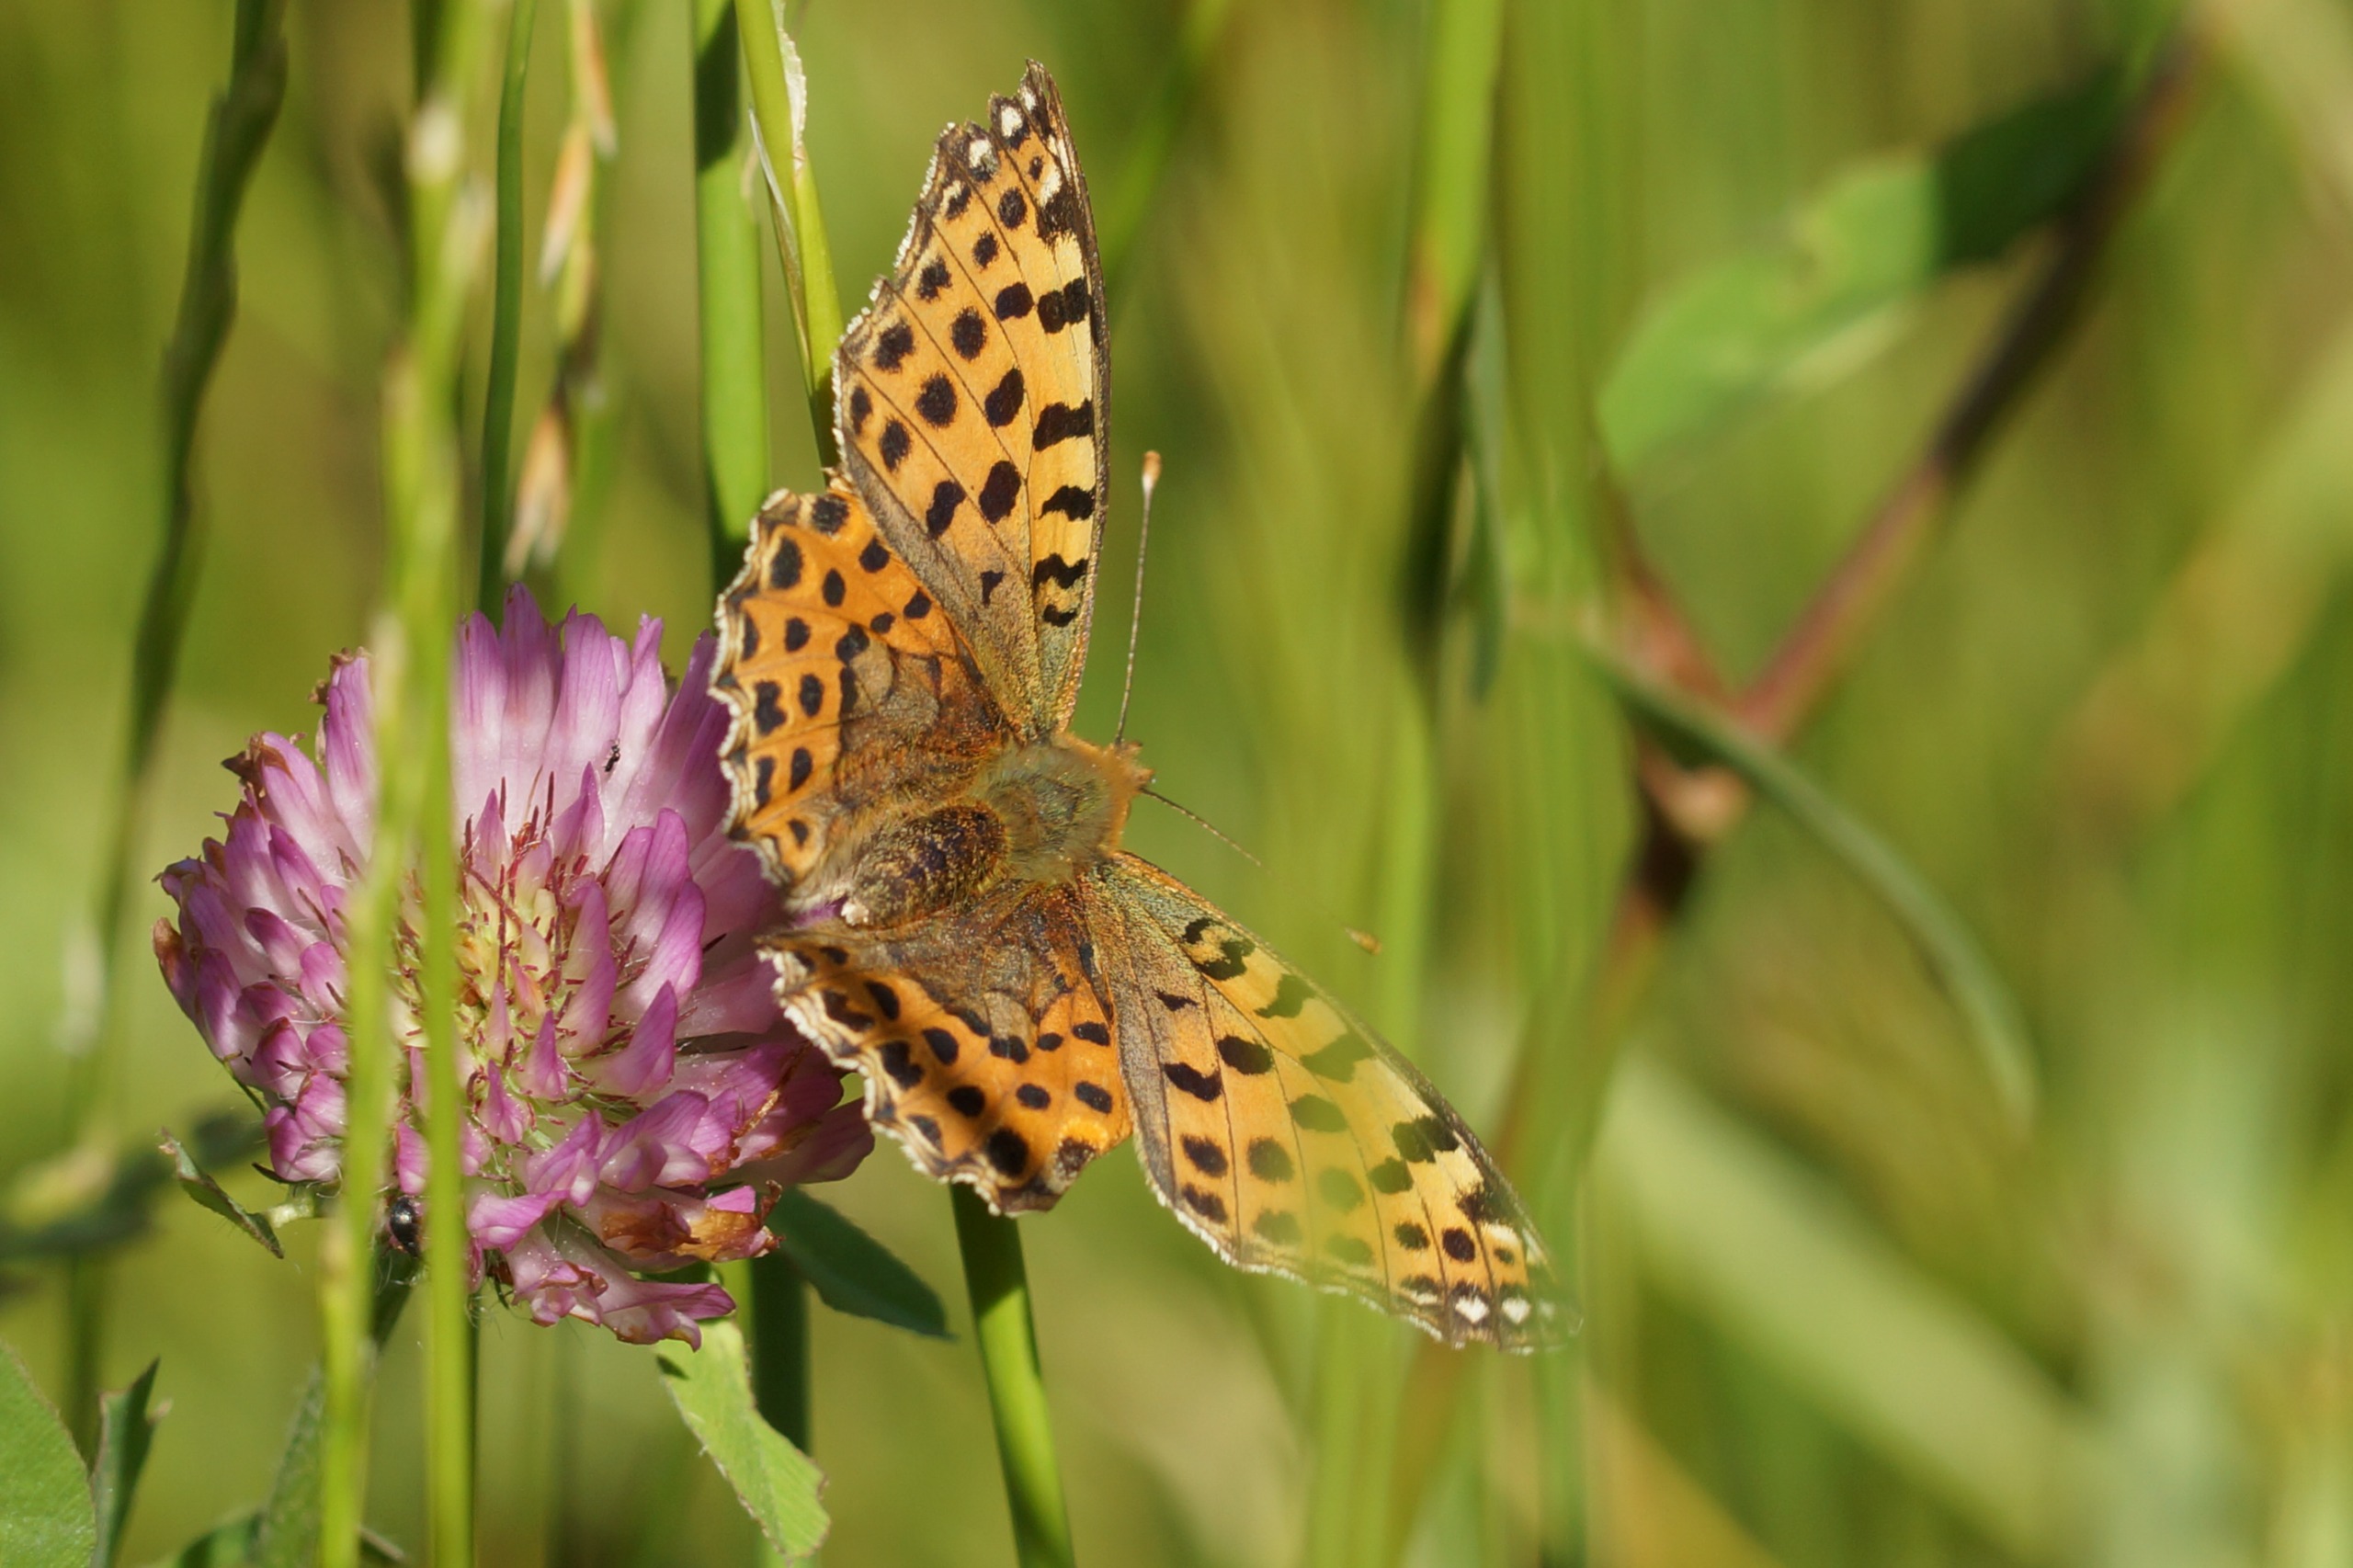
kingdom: Animalia
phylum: Arthropoda
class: Insecta
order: Lepidoptera
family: Nymphalidae
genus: Issoria
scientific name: Issoria lathonia
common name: Storplettet perlemorsommerfugl
